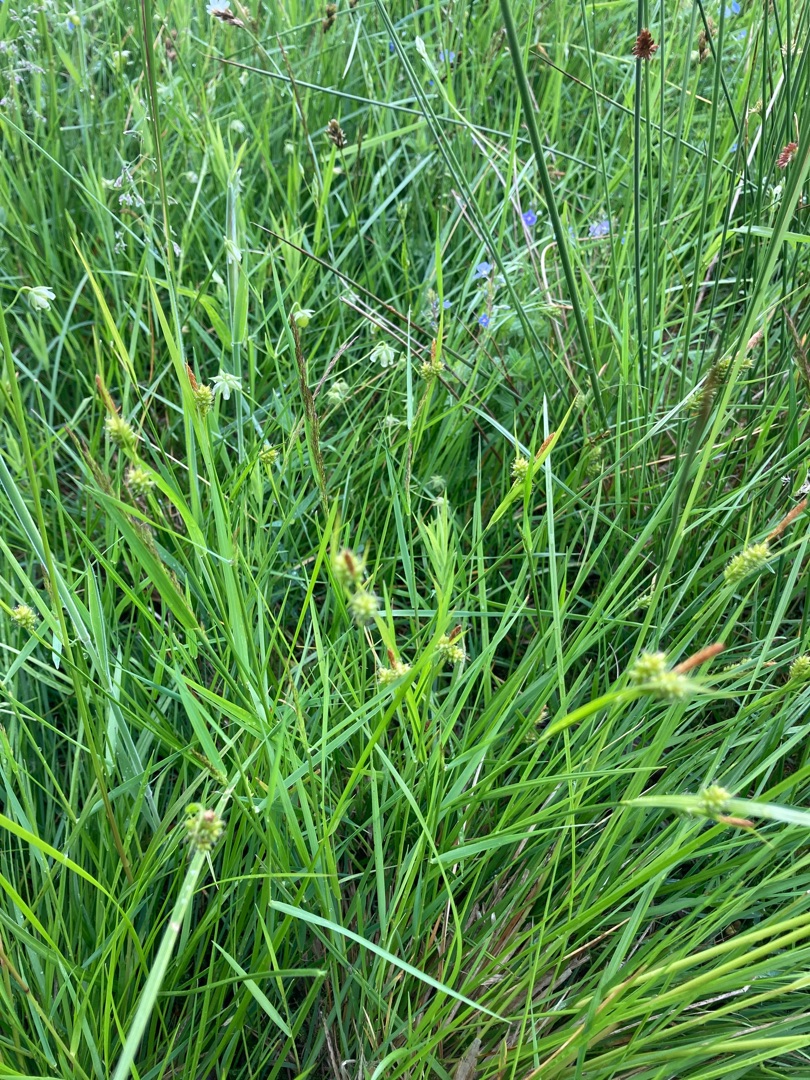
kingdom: Plantae
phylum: Tracheophyta
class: Liliopsida
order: Poales
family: Cyperaceae
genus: Carex
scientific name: Carex pallescens
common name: Bleg star
